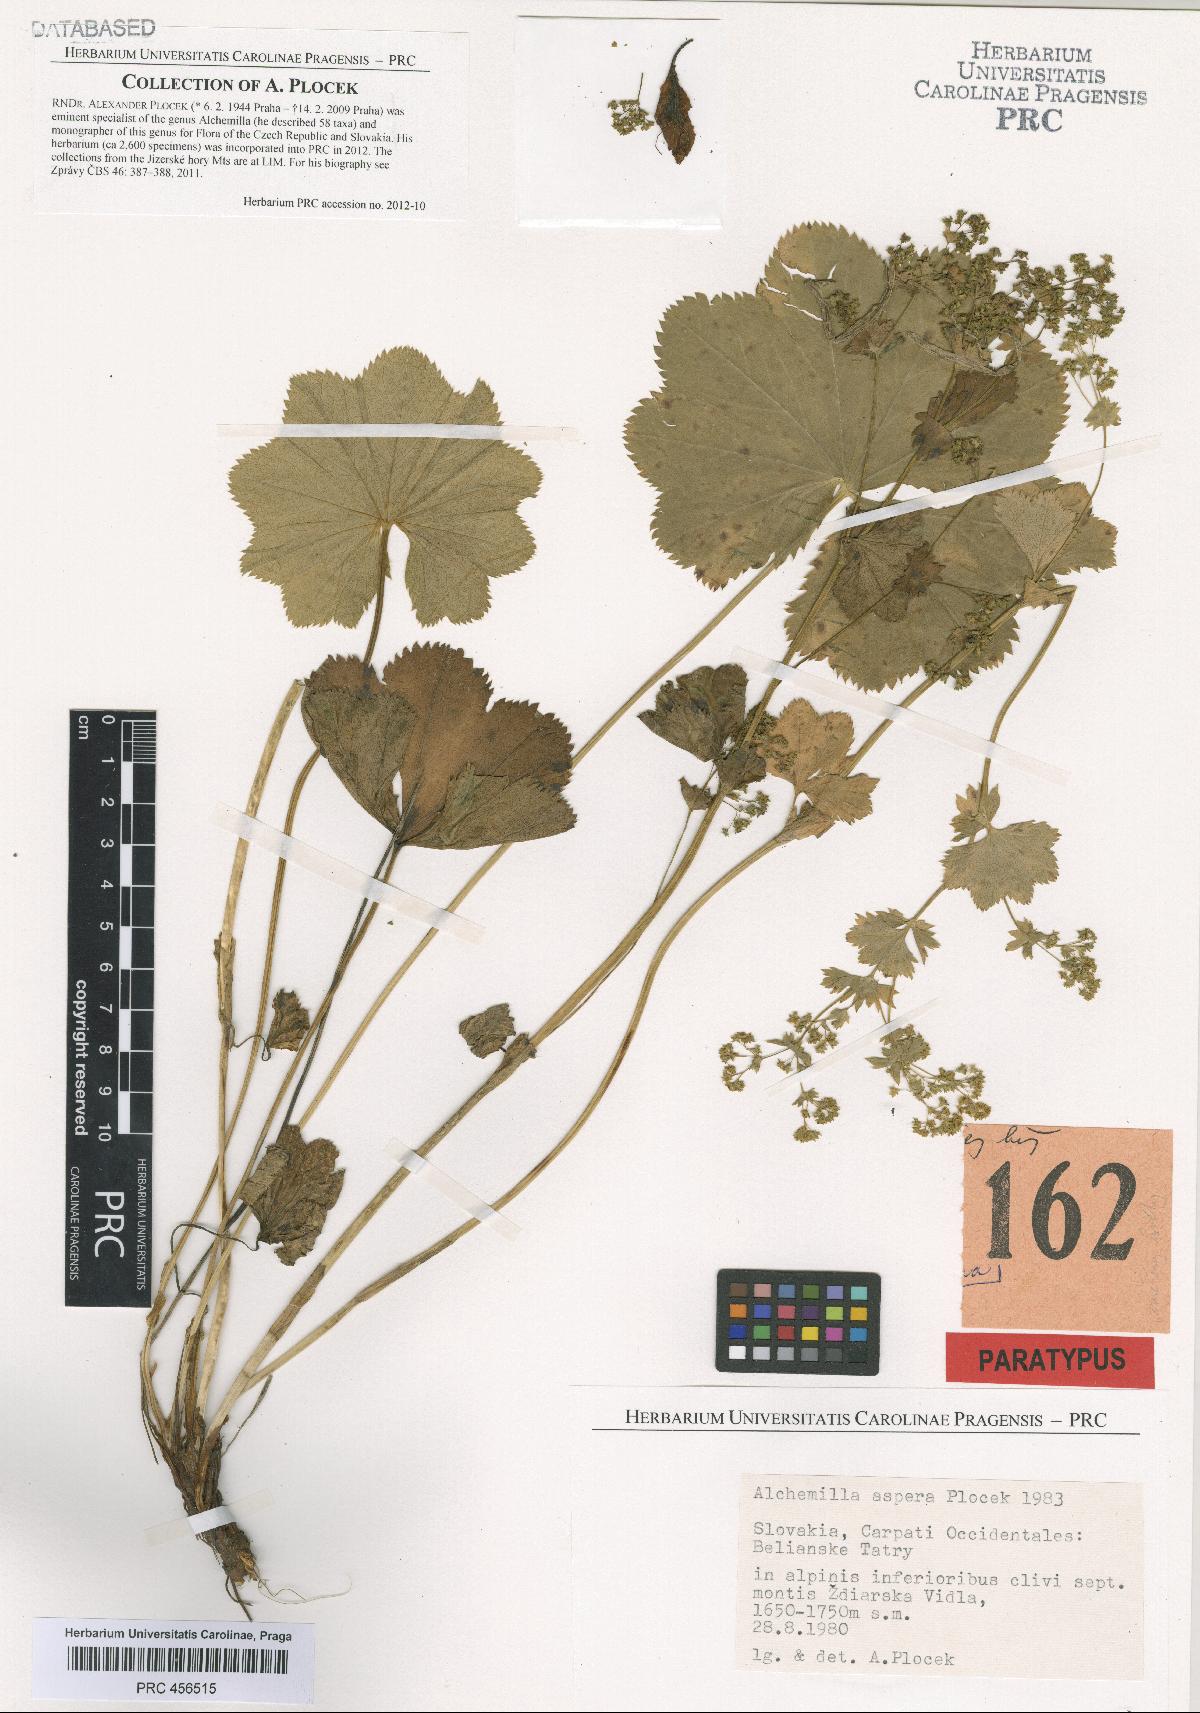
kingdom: Plantae
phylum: Tracheophyta
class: Magnoliopsida
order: Rosales
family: Rosaceae
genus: Alchemilla
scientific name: Alchemilla aspera
